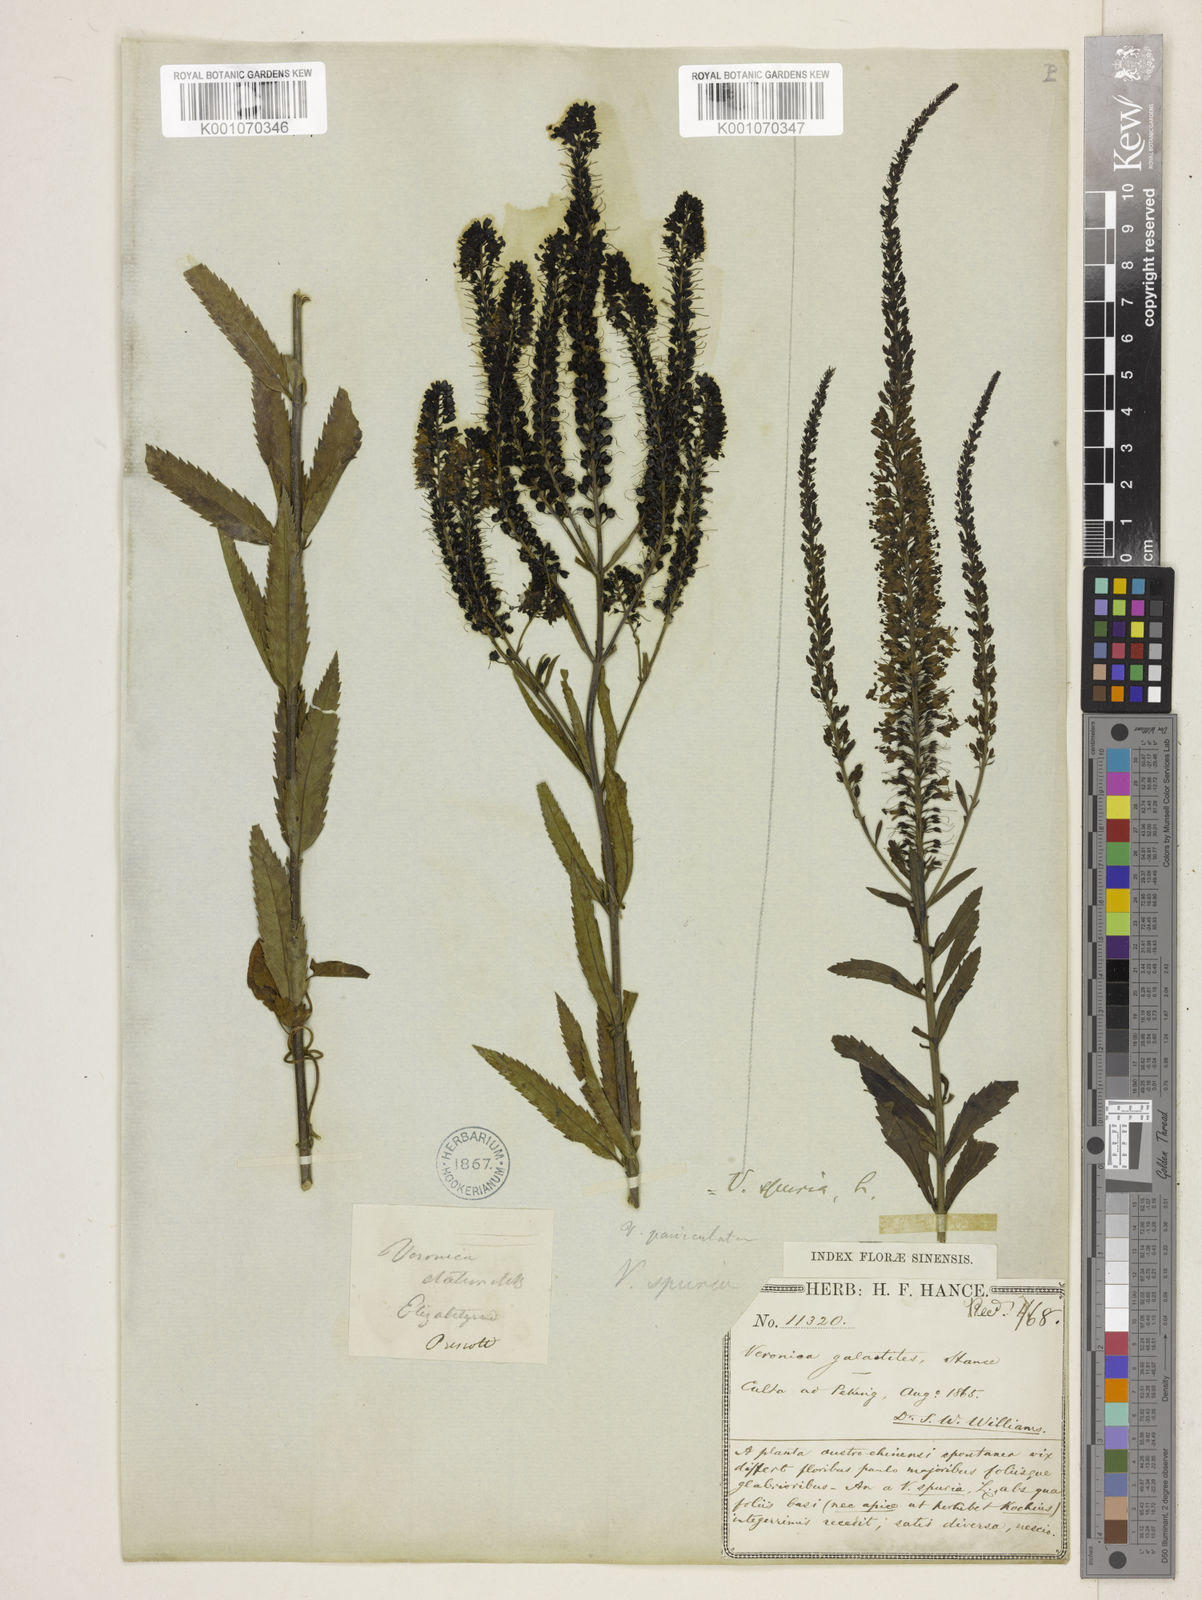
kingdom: Plantae
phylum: Tracheophyta
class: Magnoliopsida
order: Lamiales
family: Plantaginaceae
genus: Veronica
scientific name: Veronica spuria
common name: Bastard speedwell
